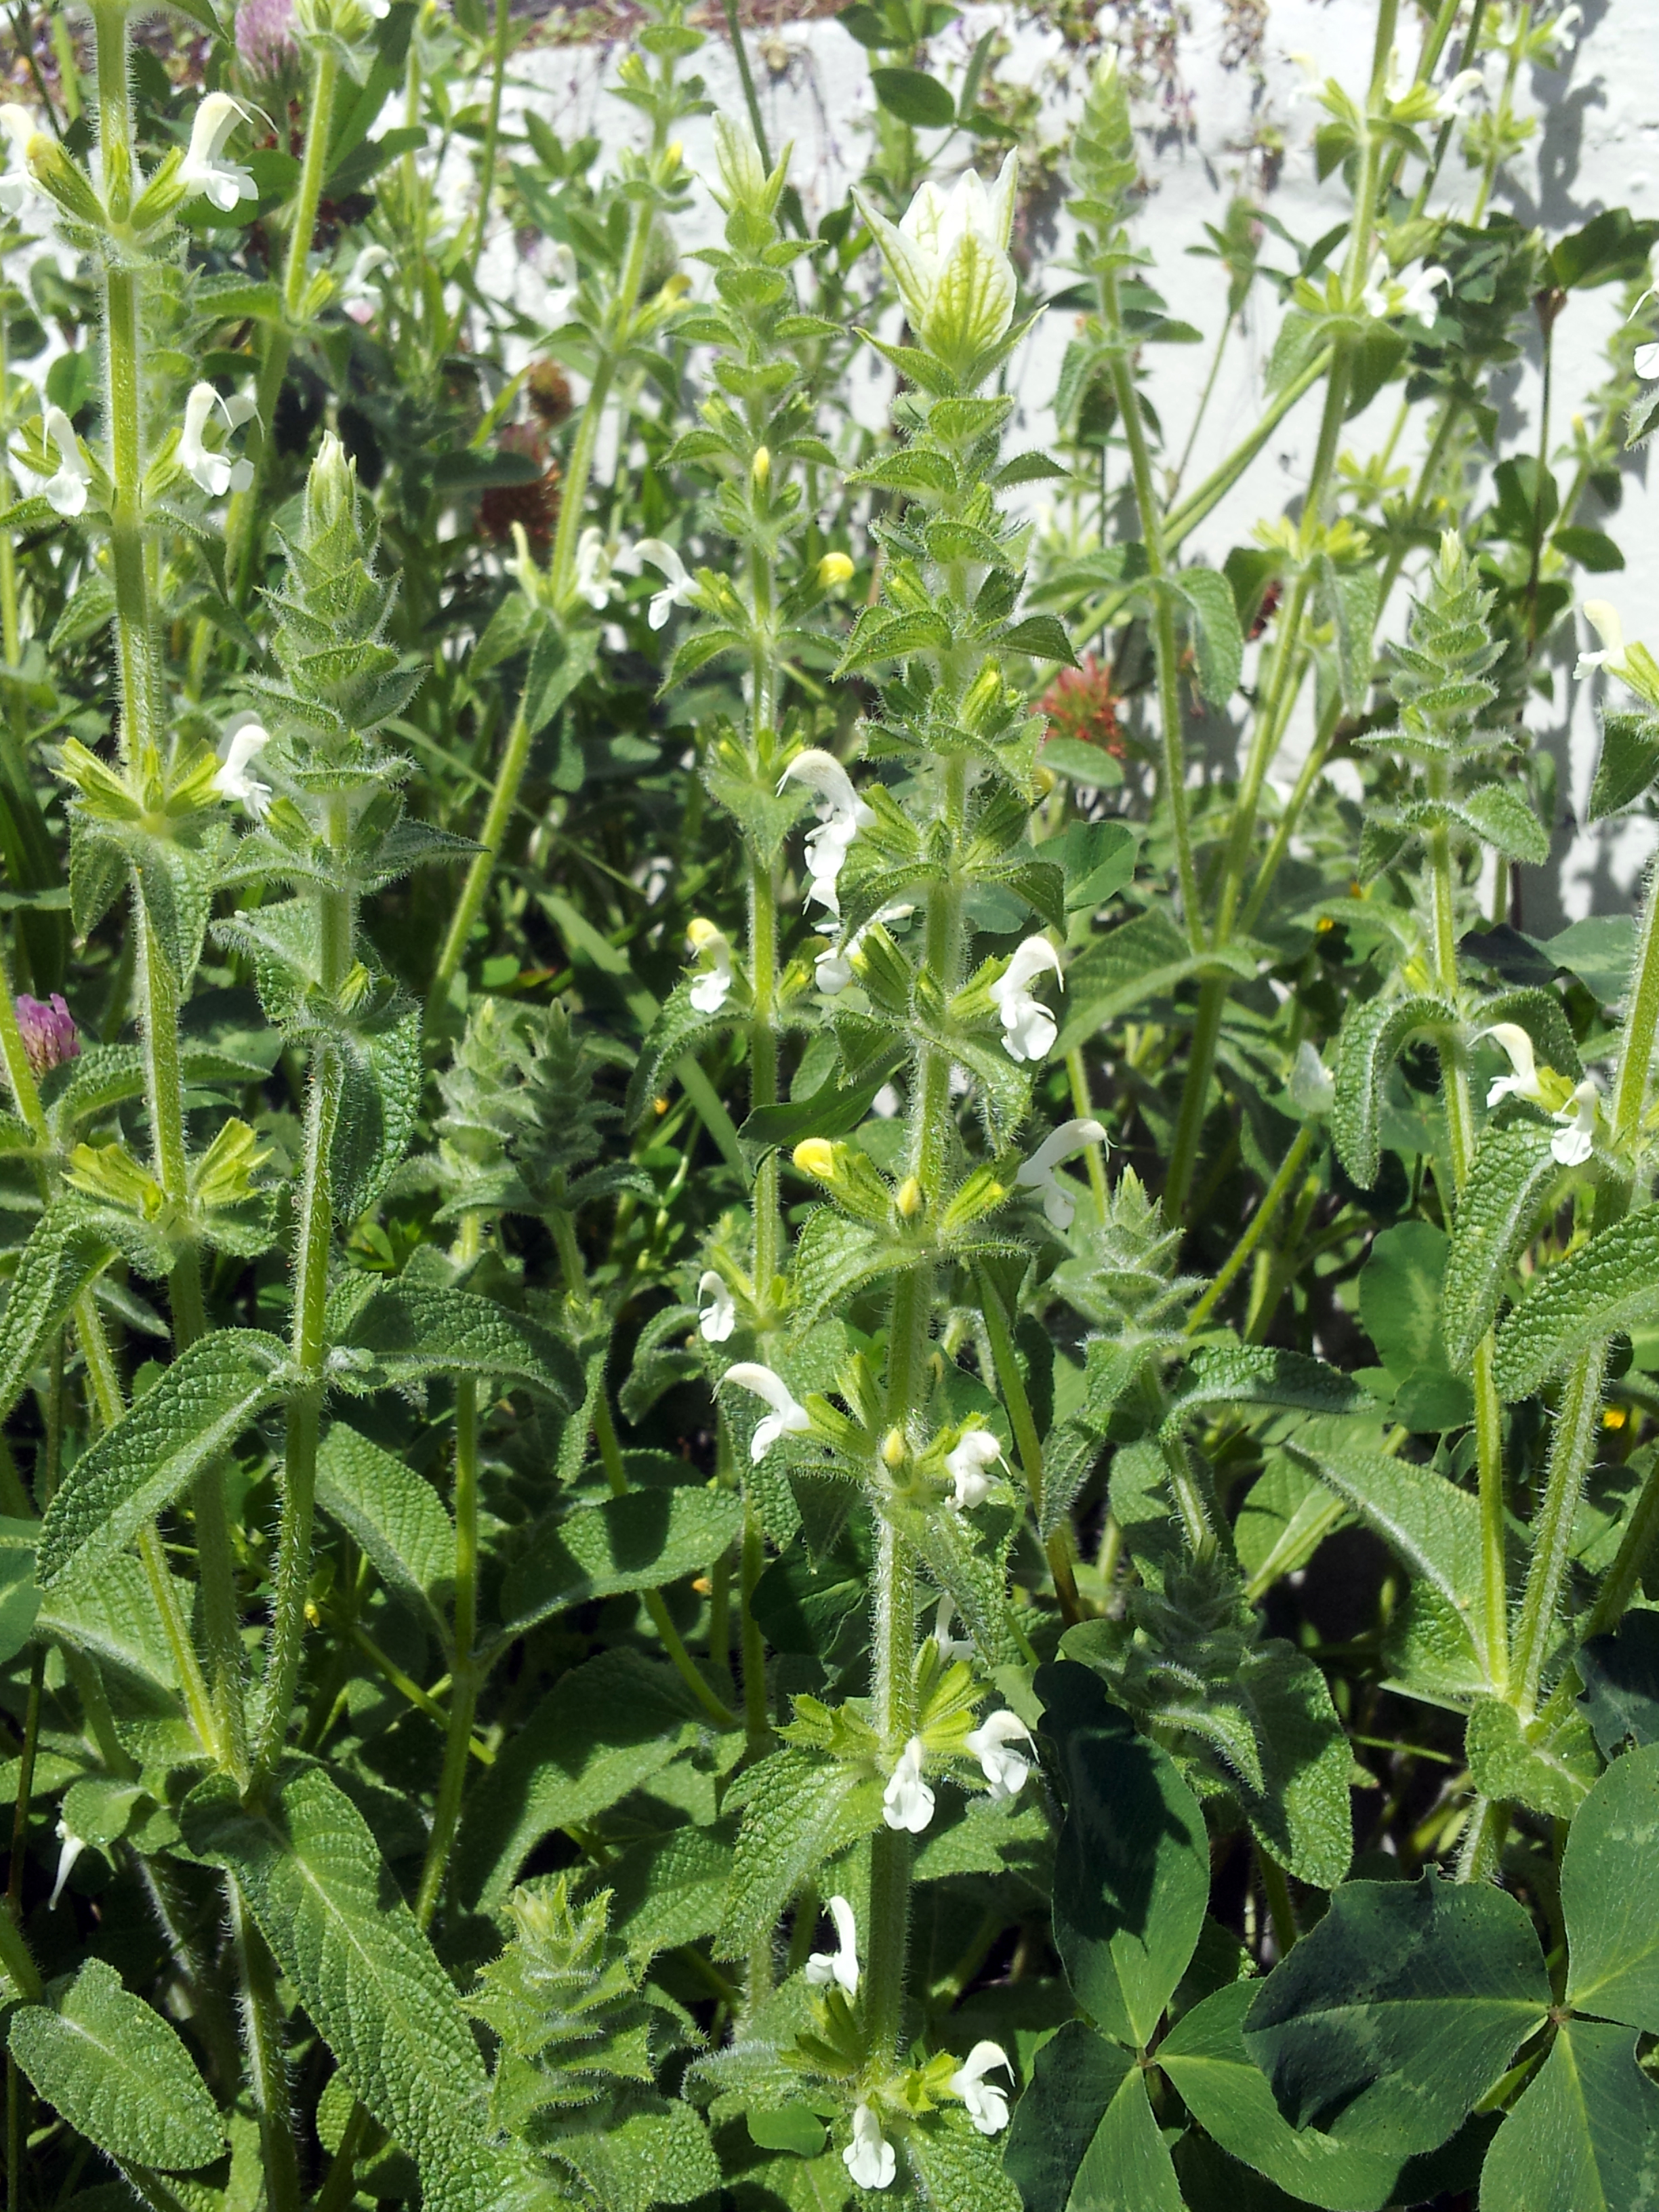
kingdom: Plantae
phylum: Tracheophyta
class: Magnoliopsida
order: Lamiales
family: Lamiaceae
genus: Salvia
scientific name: Salvia sclarea
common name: Clary
